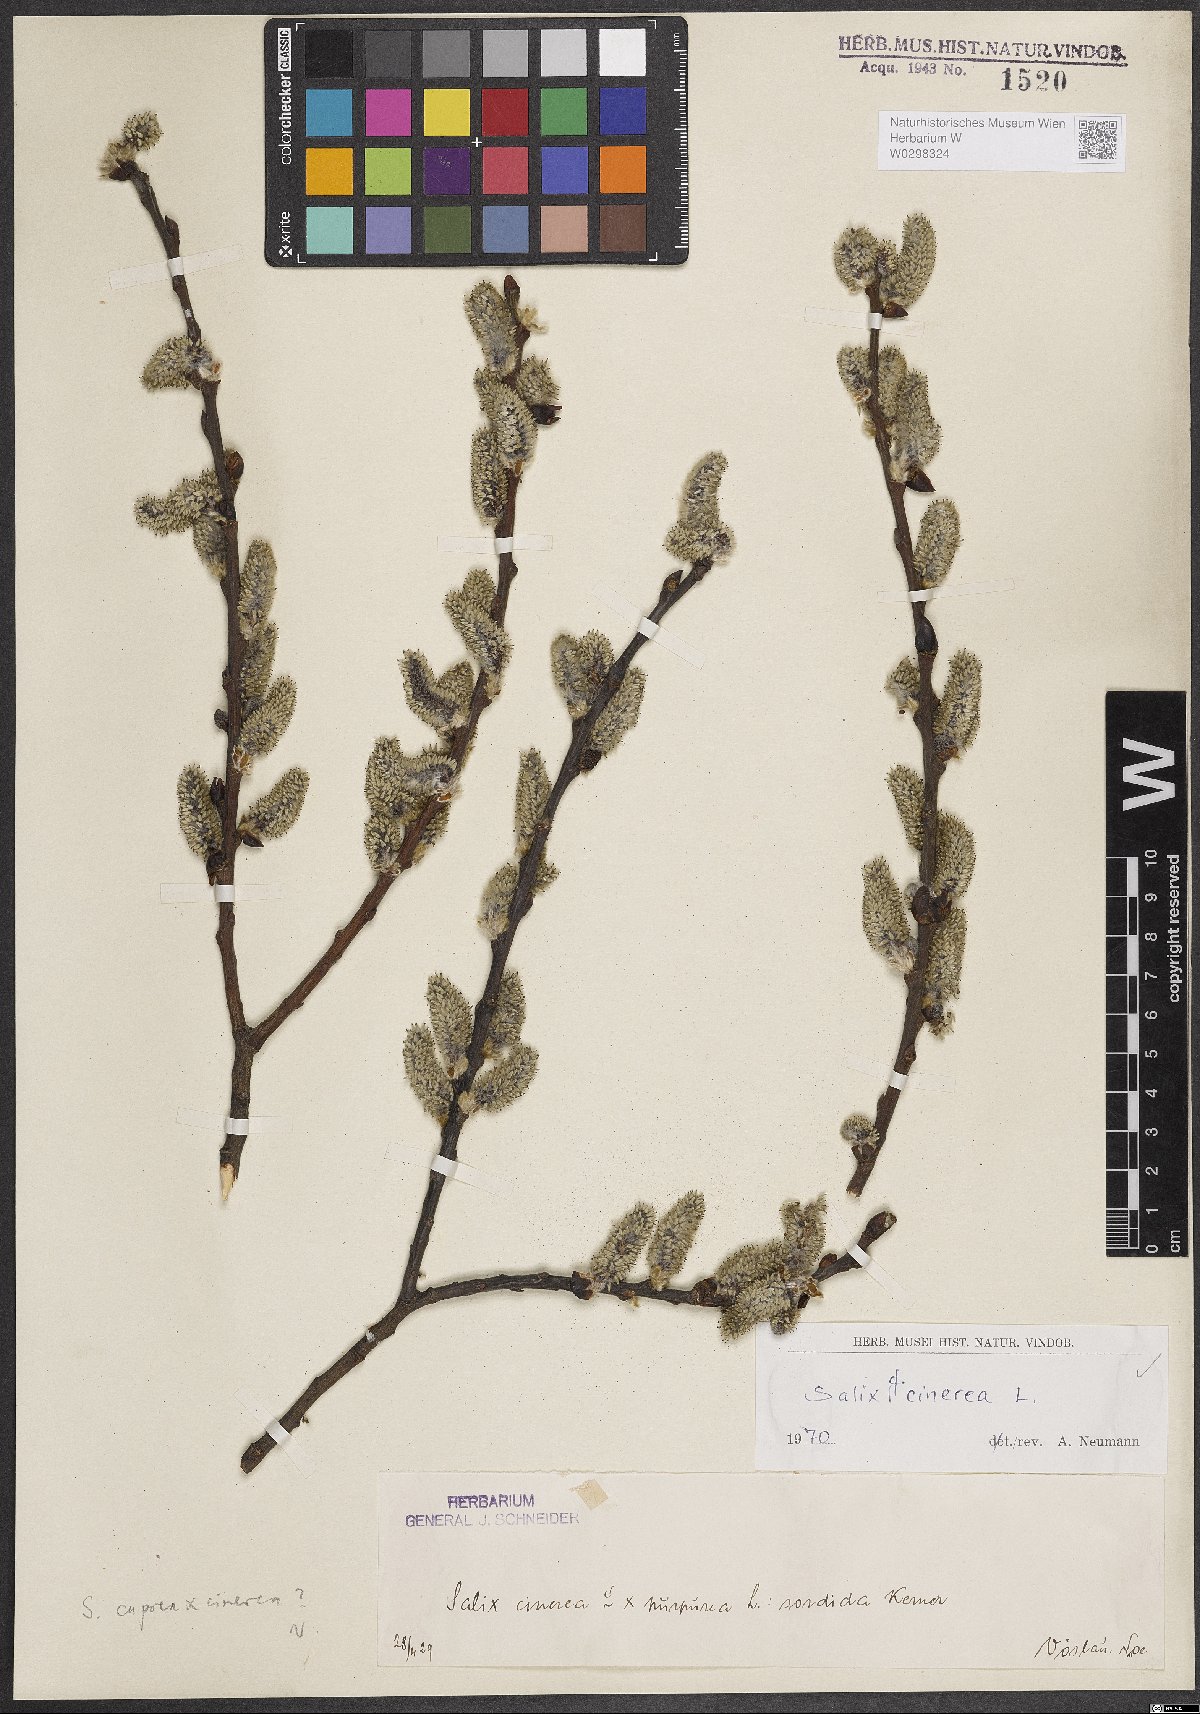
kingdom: Plantae
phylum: Tracheophyta
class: Magnoliopsida
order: Malpighiales
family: Salicaceae
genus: Salix
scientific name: Salix cinerea
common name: Common sallow
